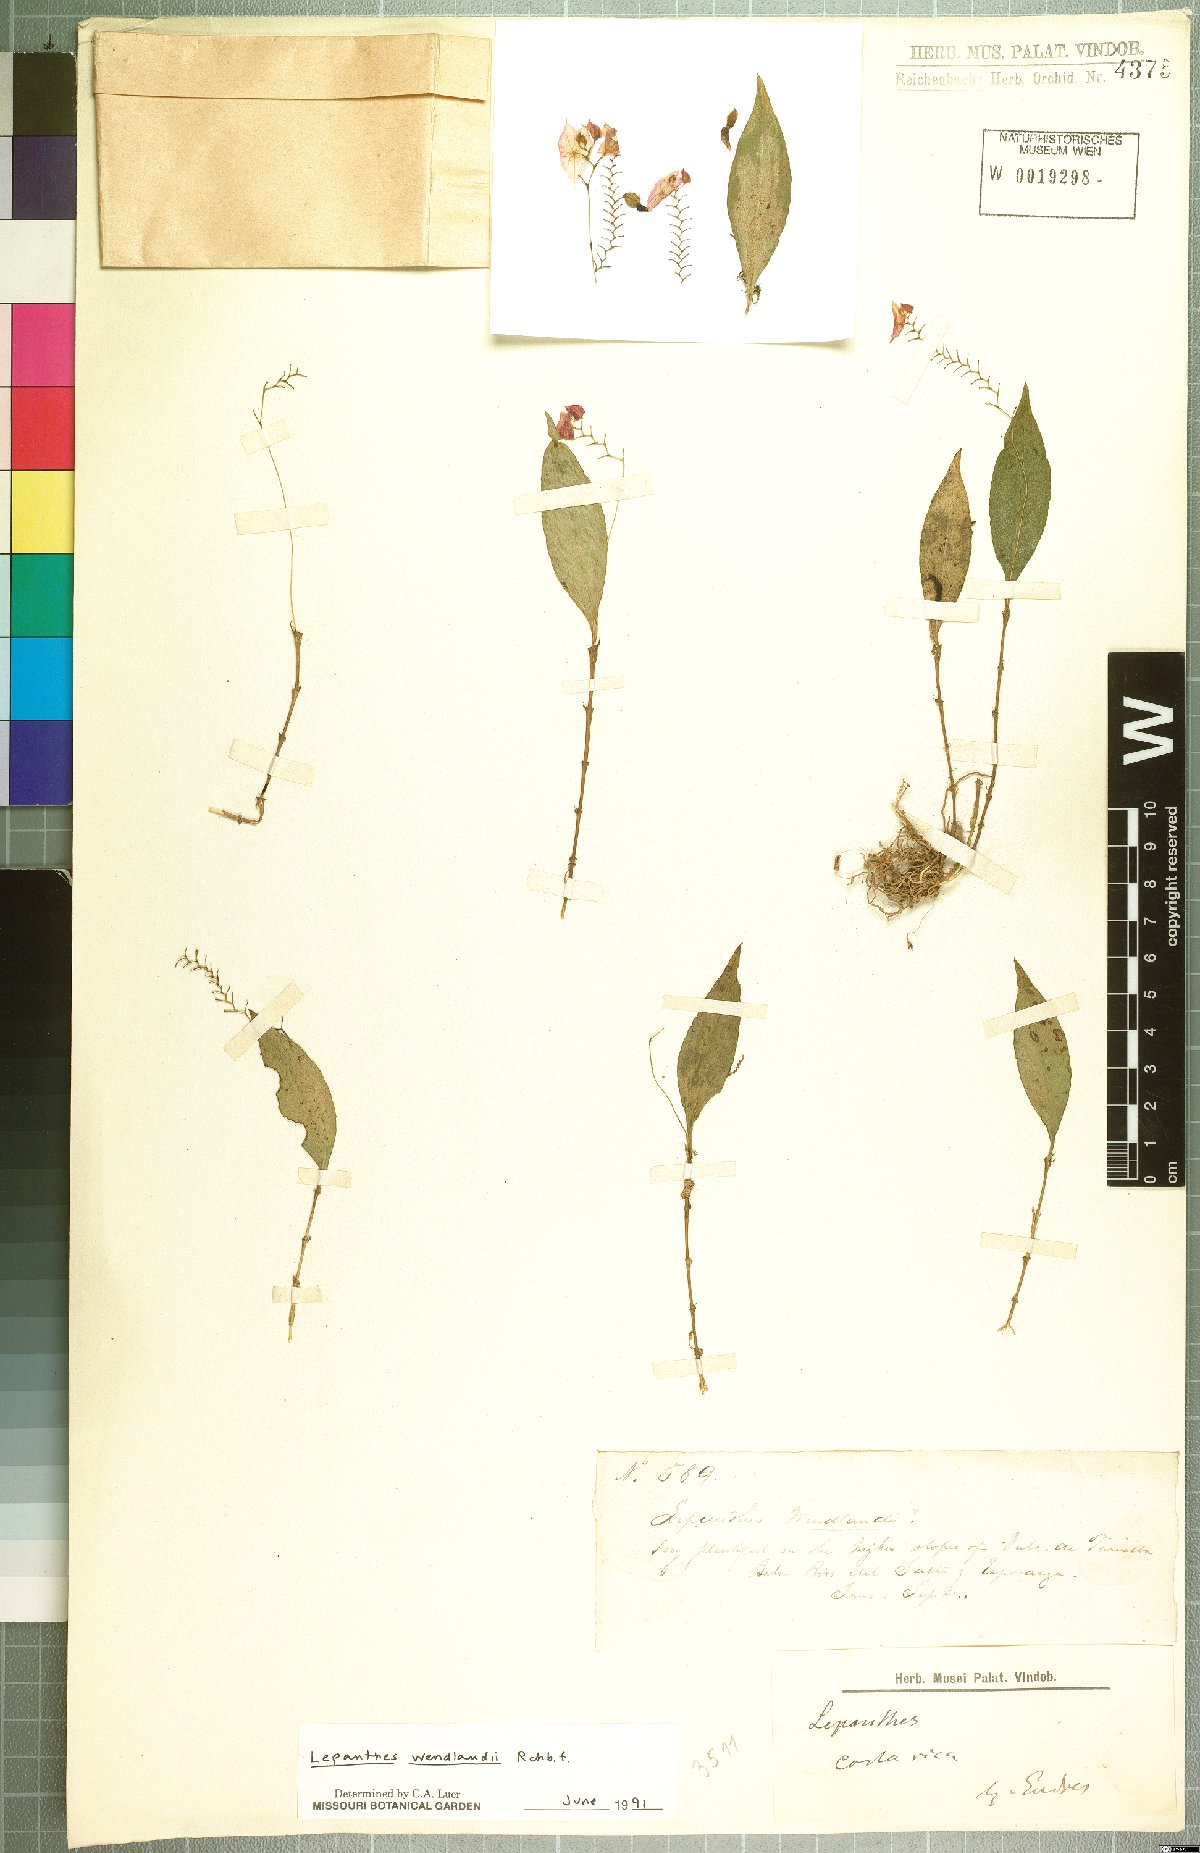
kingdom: Plantae
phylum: Tracheophyta
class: Liliopsida
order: Asparagales
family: Orchidaceae
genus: Lepanthes
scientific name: Lepanthes wendlandii
